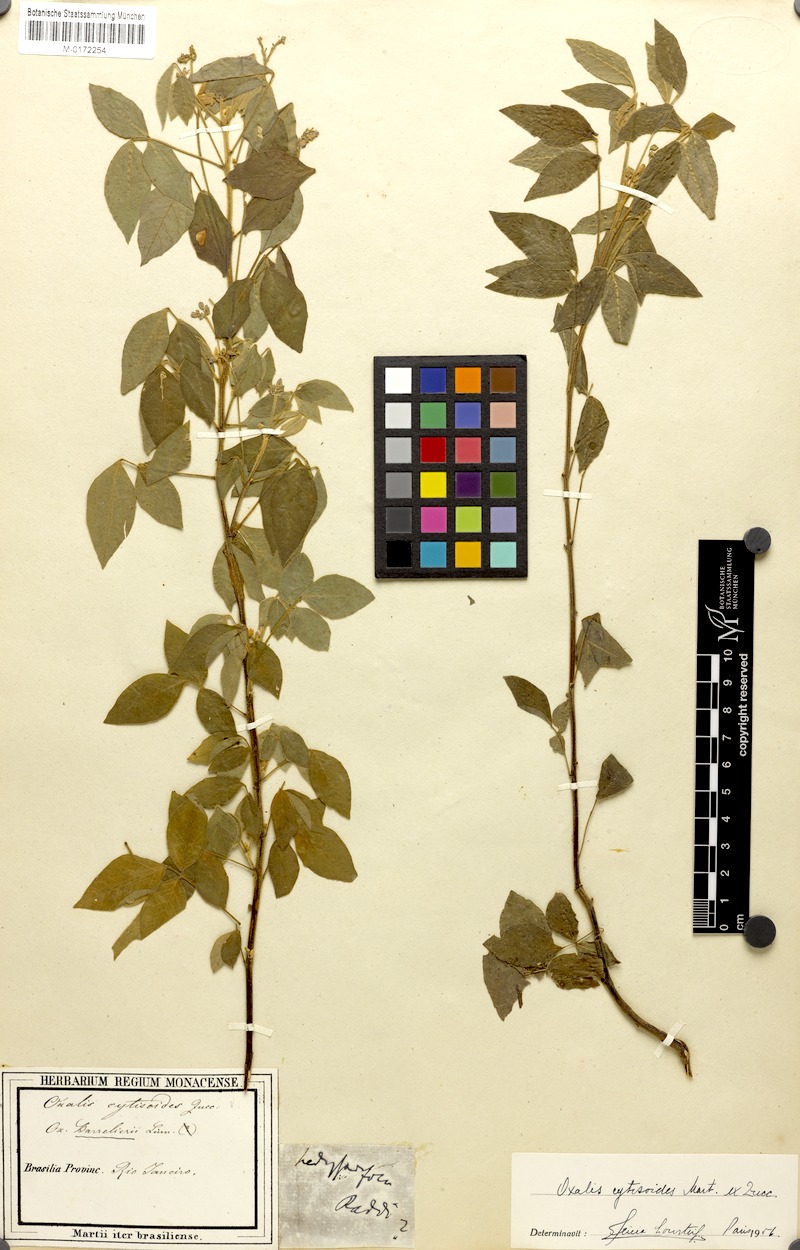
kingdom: Plantae
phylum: Tracheophyta
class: Magnoliopsida
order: Oxalidales
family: Oxalidaceae
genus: Oxalis
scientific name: Oxalis cytisoides
